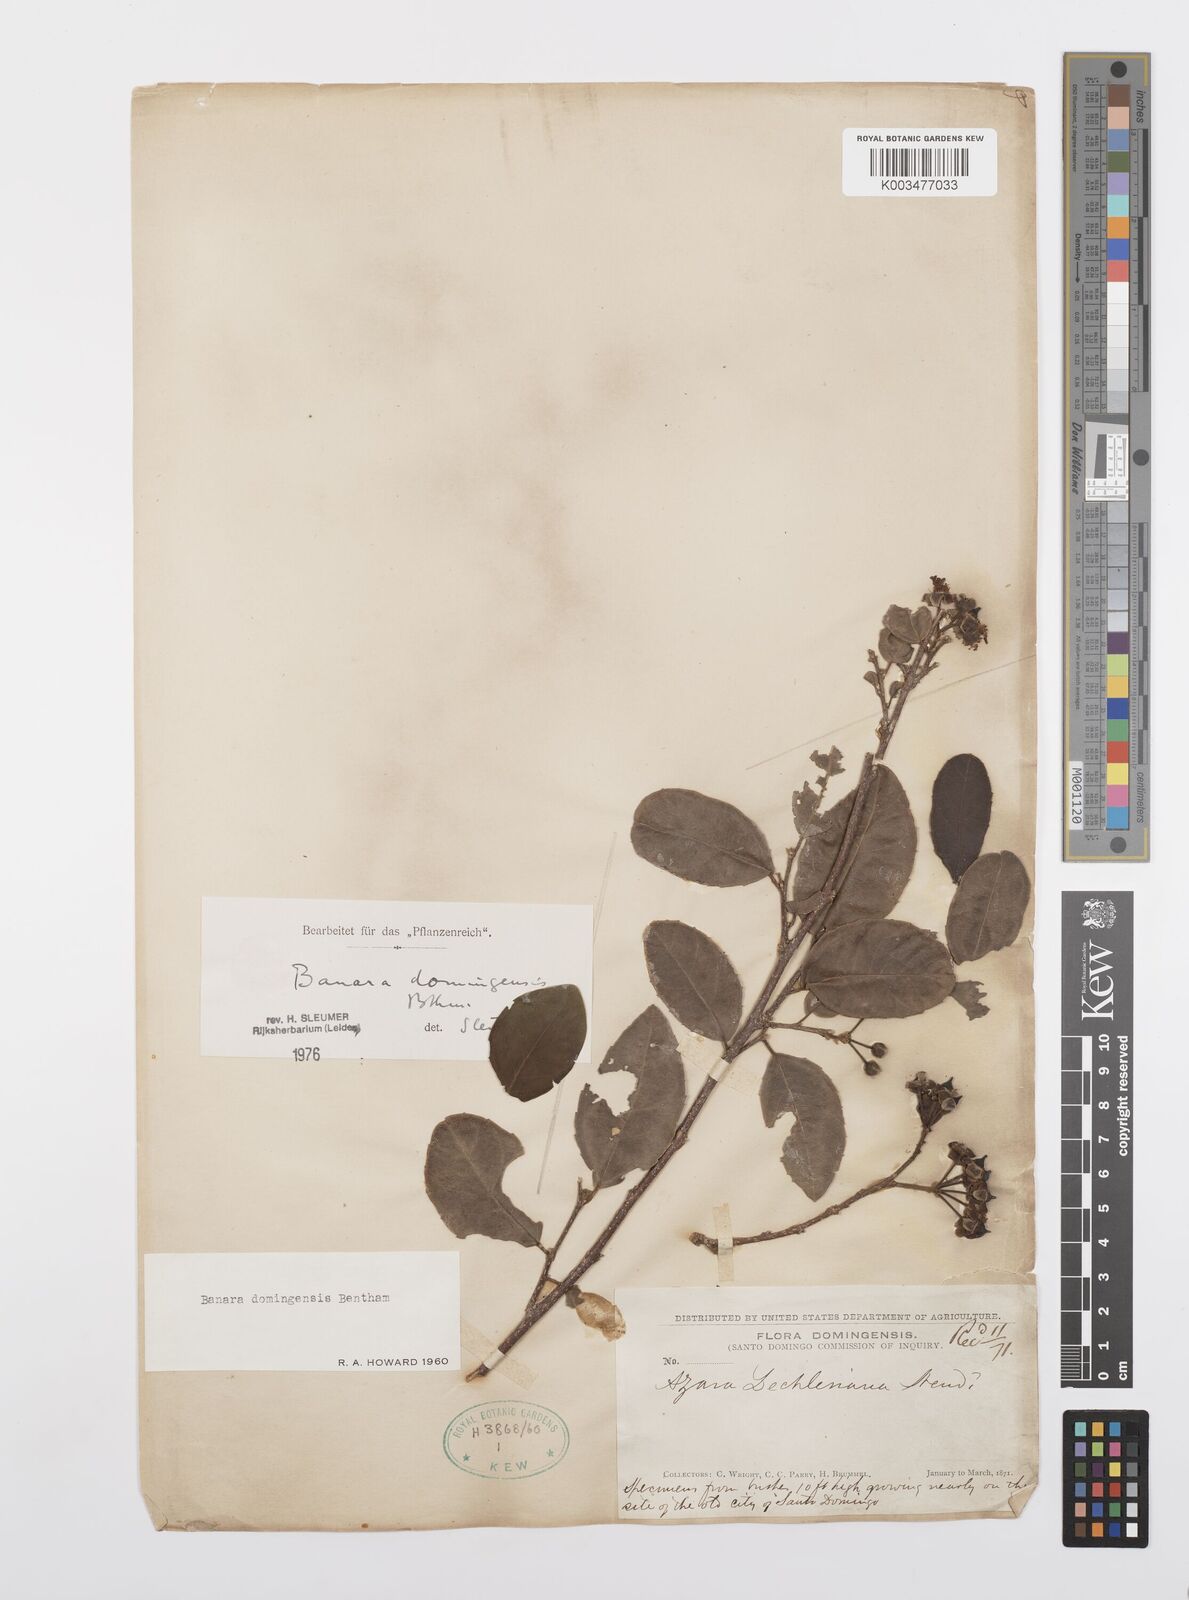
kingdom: Plantae
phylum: Tracheophyta
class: Magnoliopsida
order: Malpighiales
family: Salicaceae
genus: Banara
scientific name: Banara domingensis
